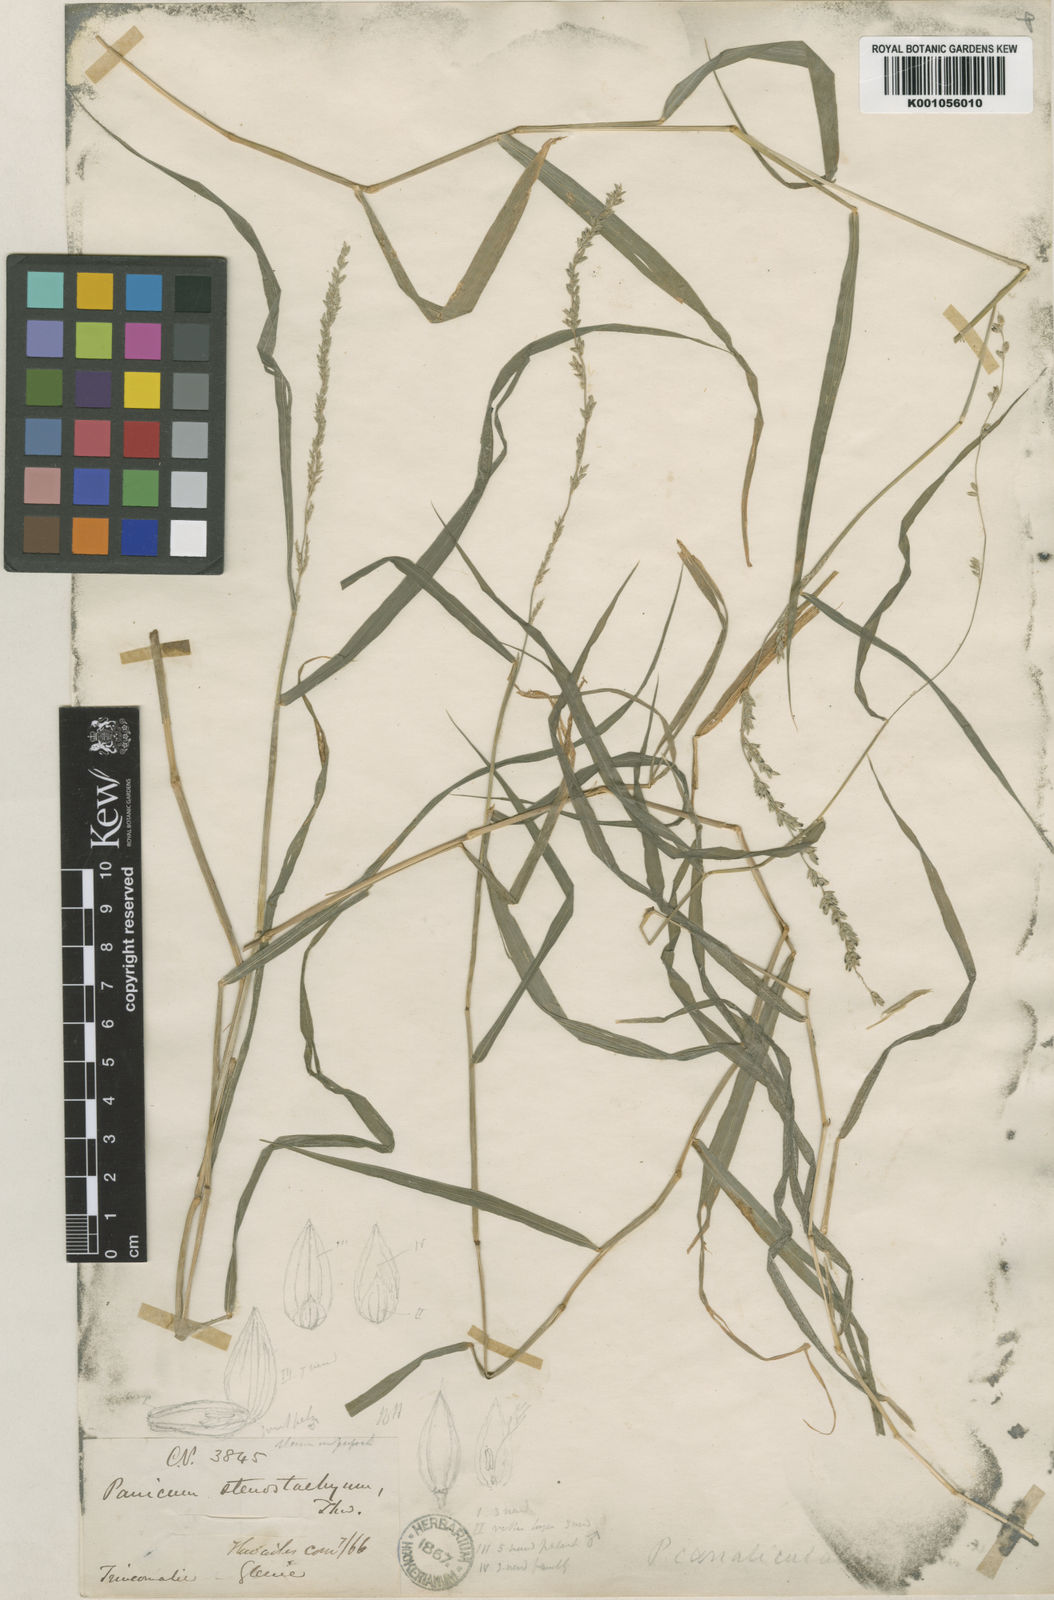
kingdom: Plantae
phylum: Tracheophyta
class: Liliopsida
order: Poales
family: Poaceae
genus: Holcolemma
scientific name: Holcolemma canaliculatum
